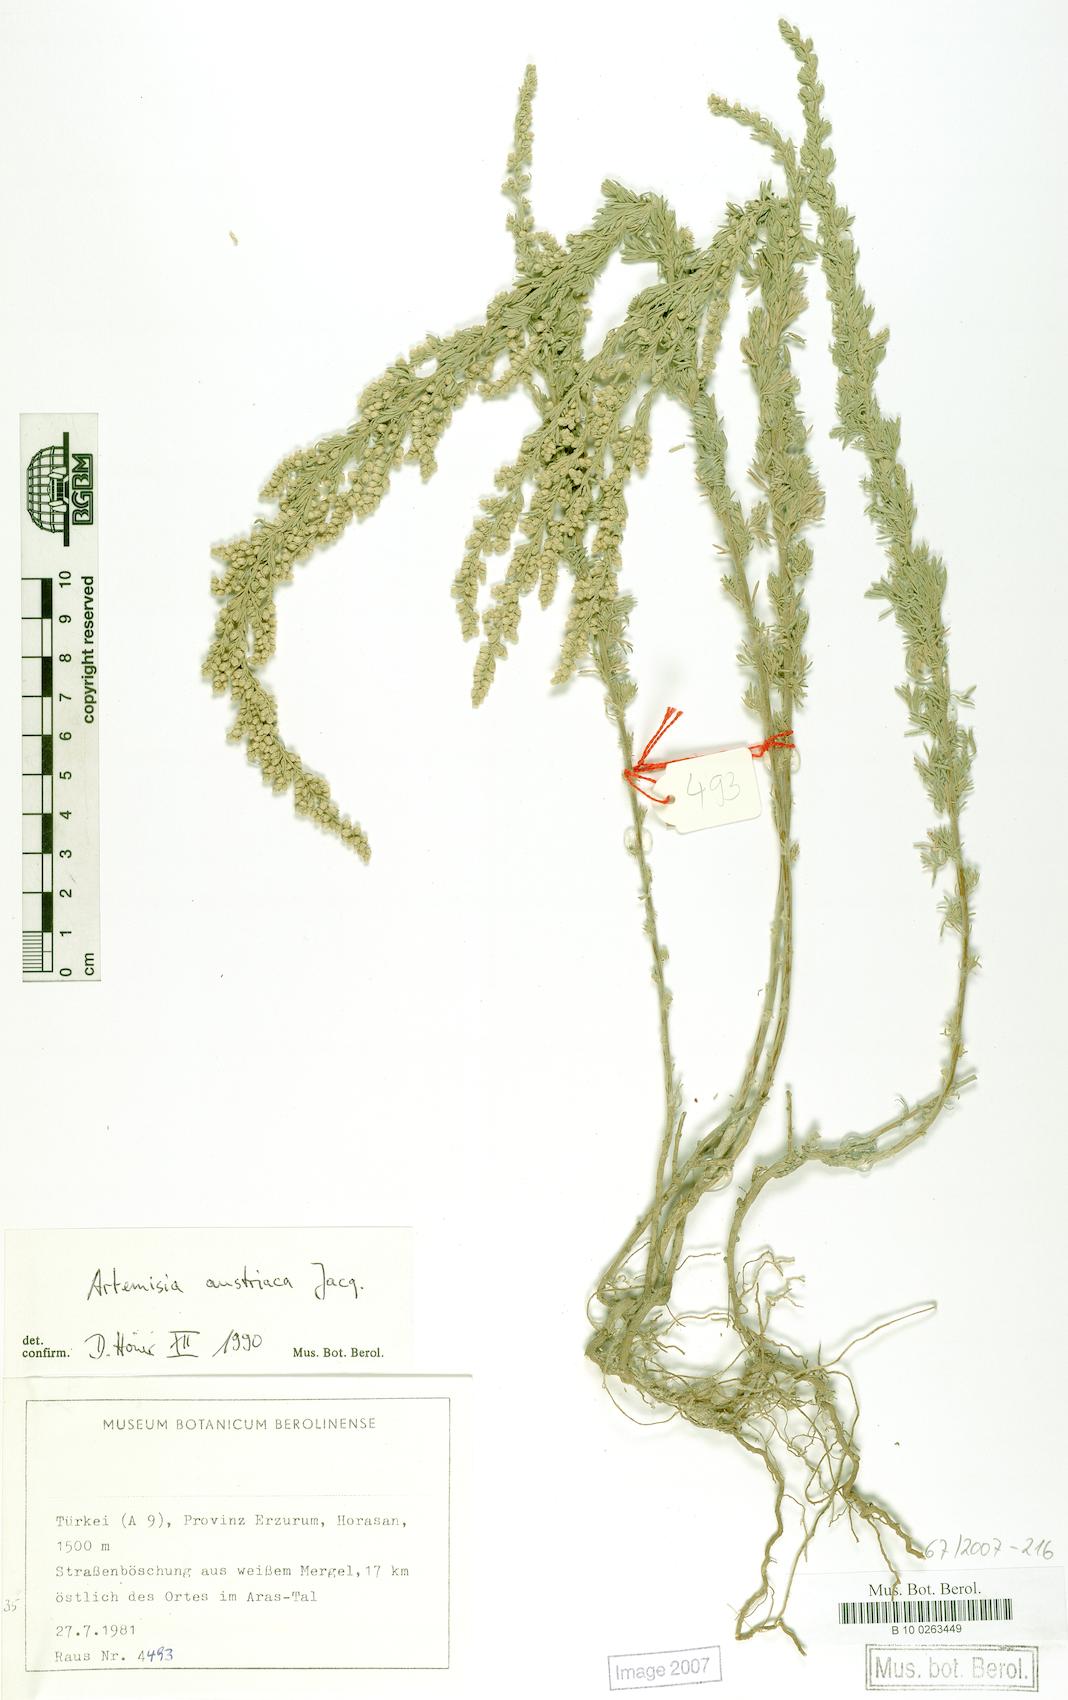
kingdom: Plantae
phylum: Tracheophyta
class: Magnoliopsida
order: Asterales
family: Asteraceae
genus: Artemisia
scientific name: Artemisia austriaca
